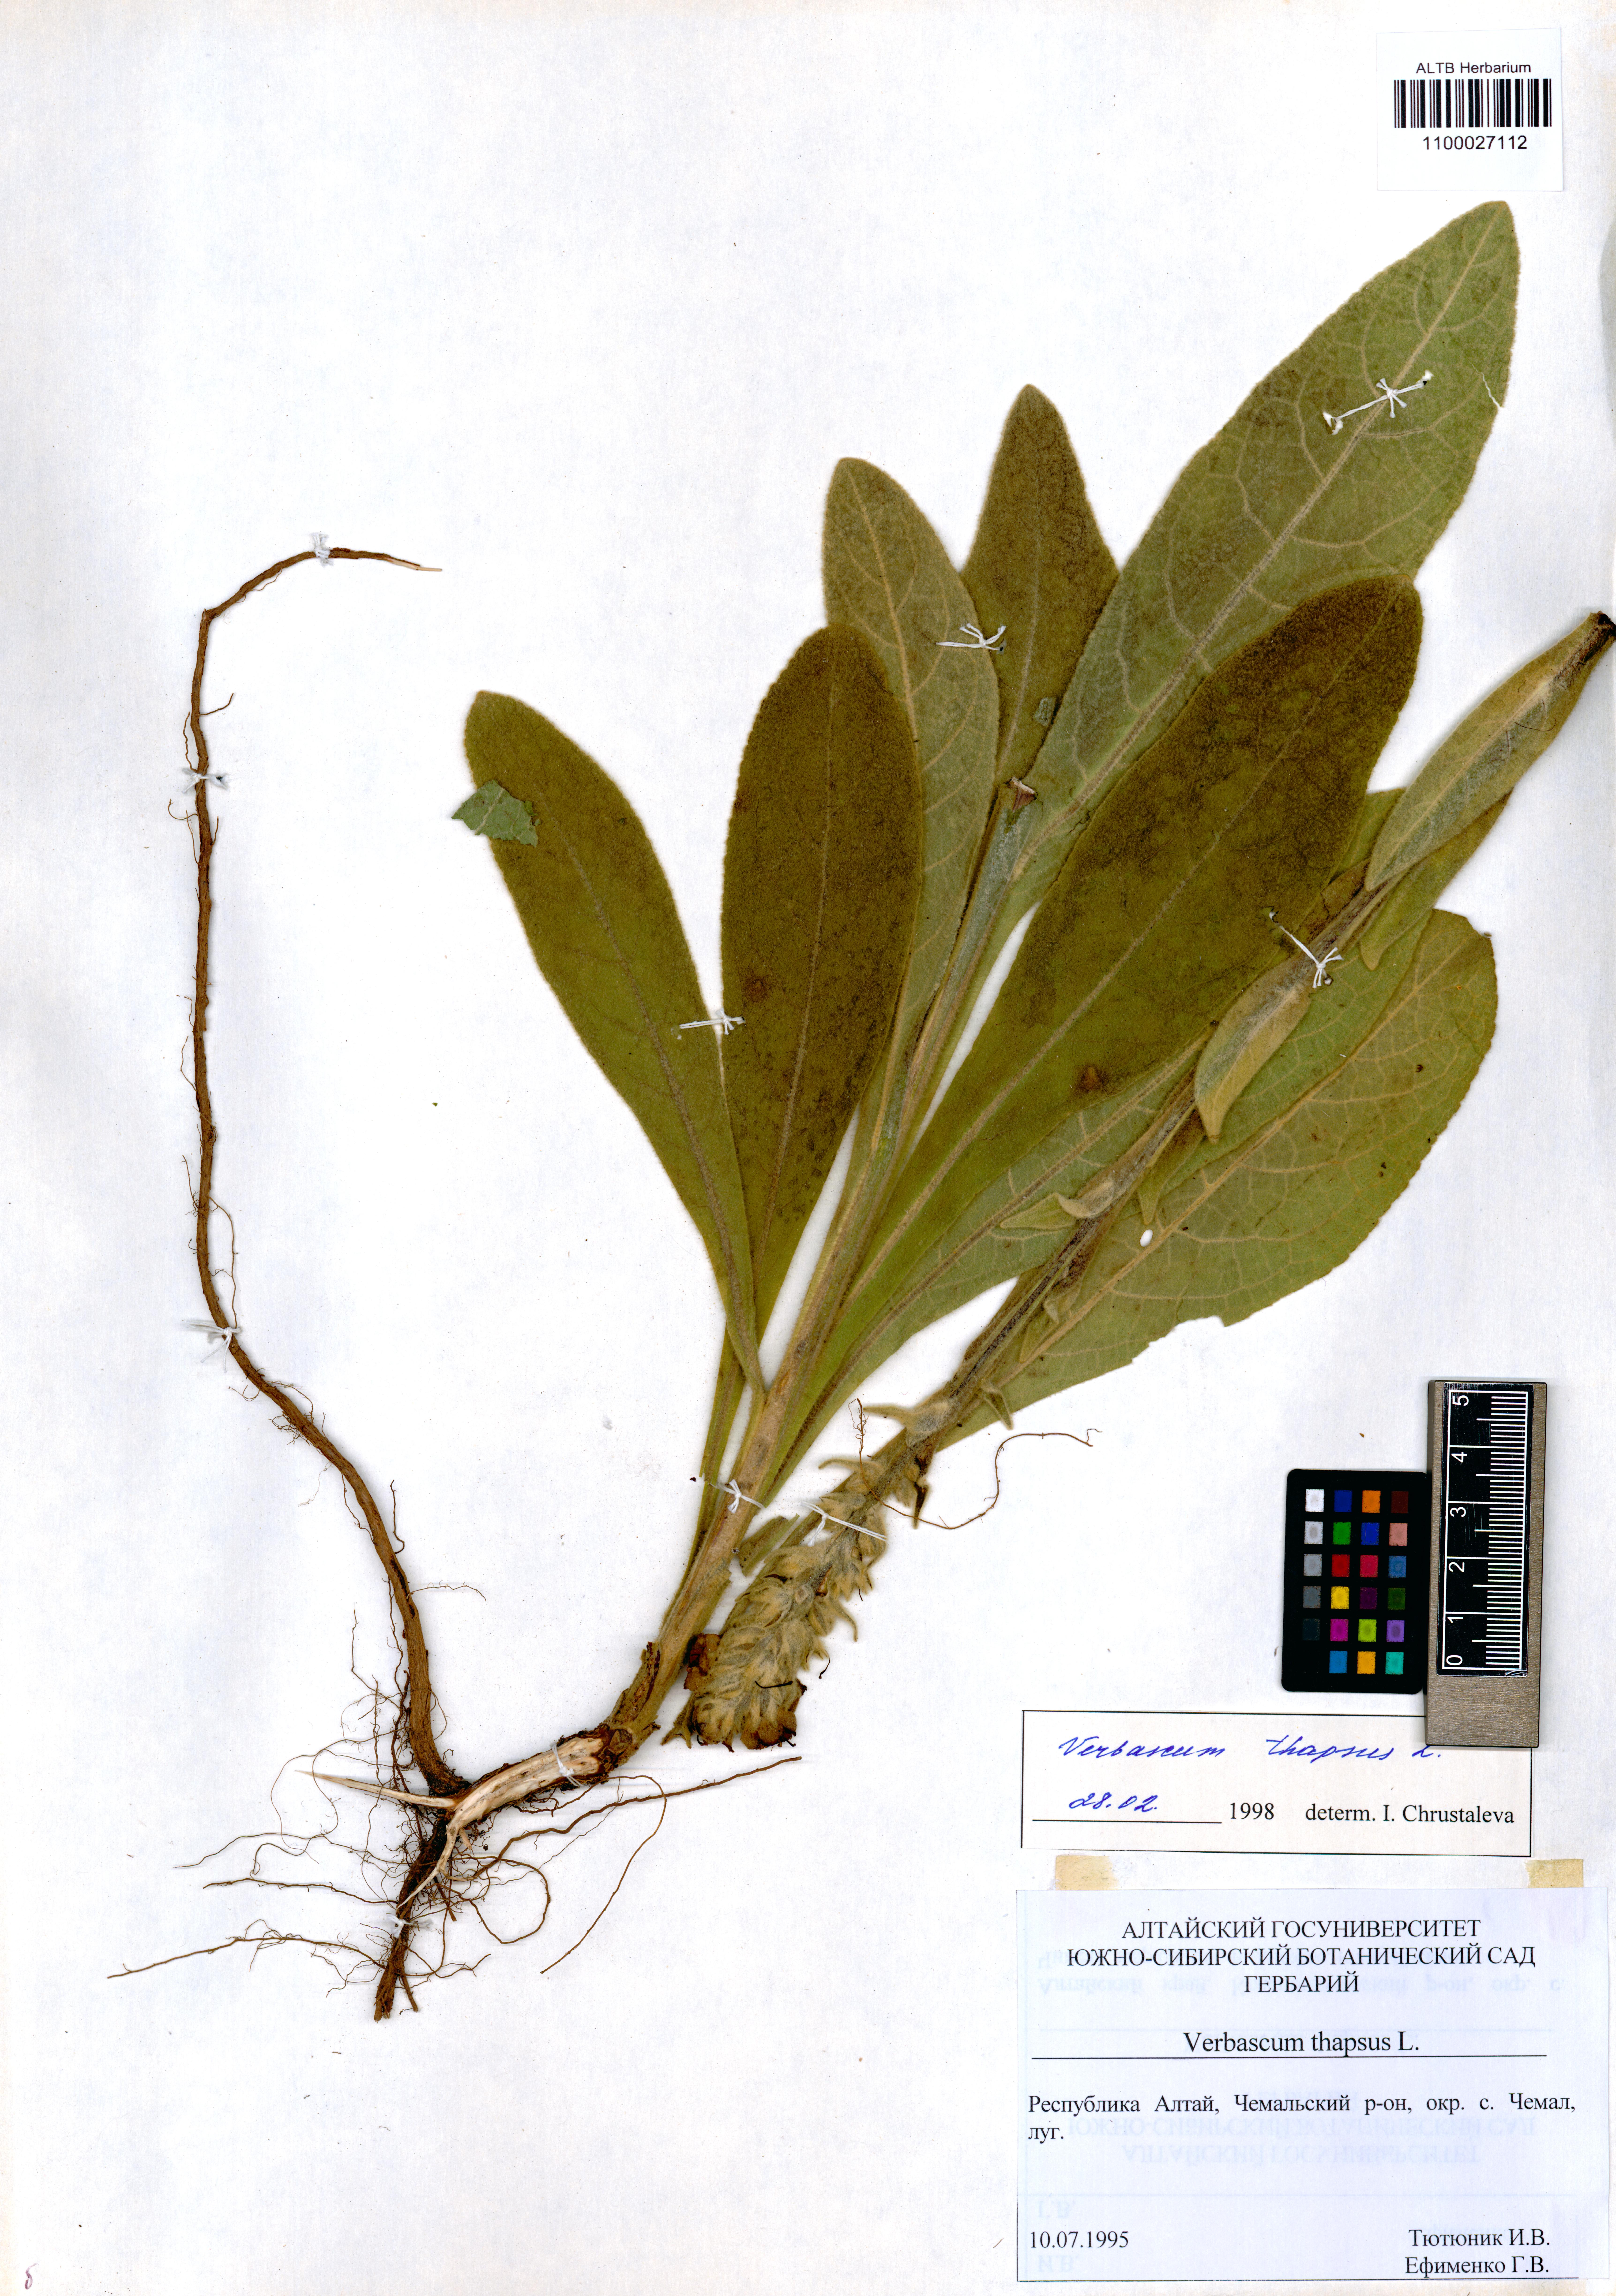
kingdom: Plantae
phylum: Tracheophyta
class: Magnoliopsida
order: Lamiales
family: Scrophulariaceae
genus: Verbascum
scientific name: Verbascum thapsus
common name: Common mullein
